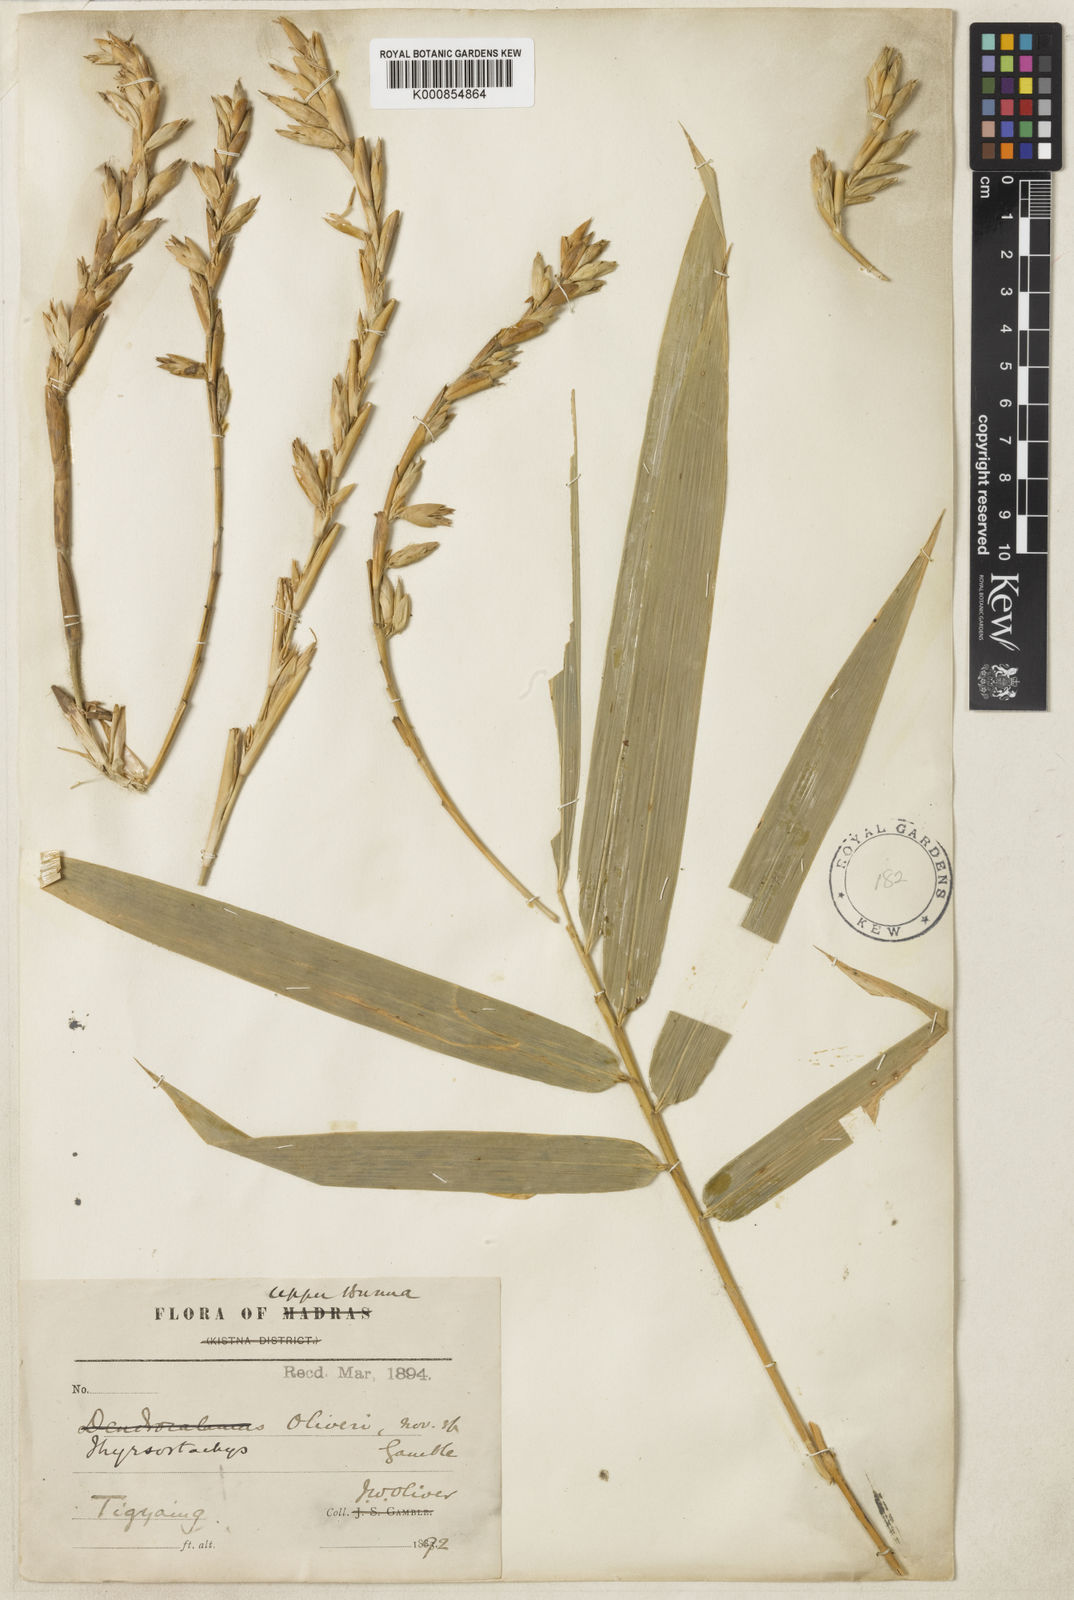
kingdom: Plantae
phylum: Tracheophyta
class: Liliopsida
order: Poales
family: Poaceae
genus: Thyrsostachys
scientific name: Thyrsostachys oliveri
